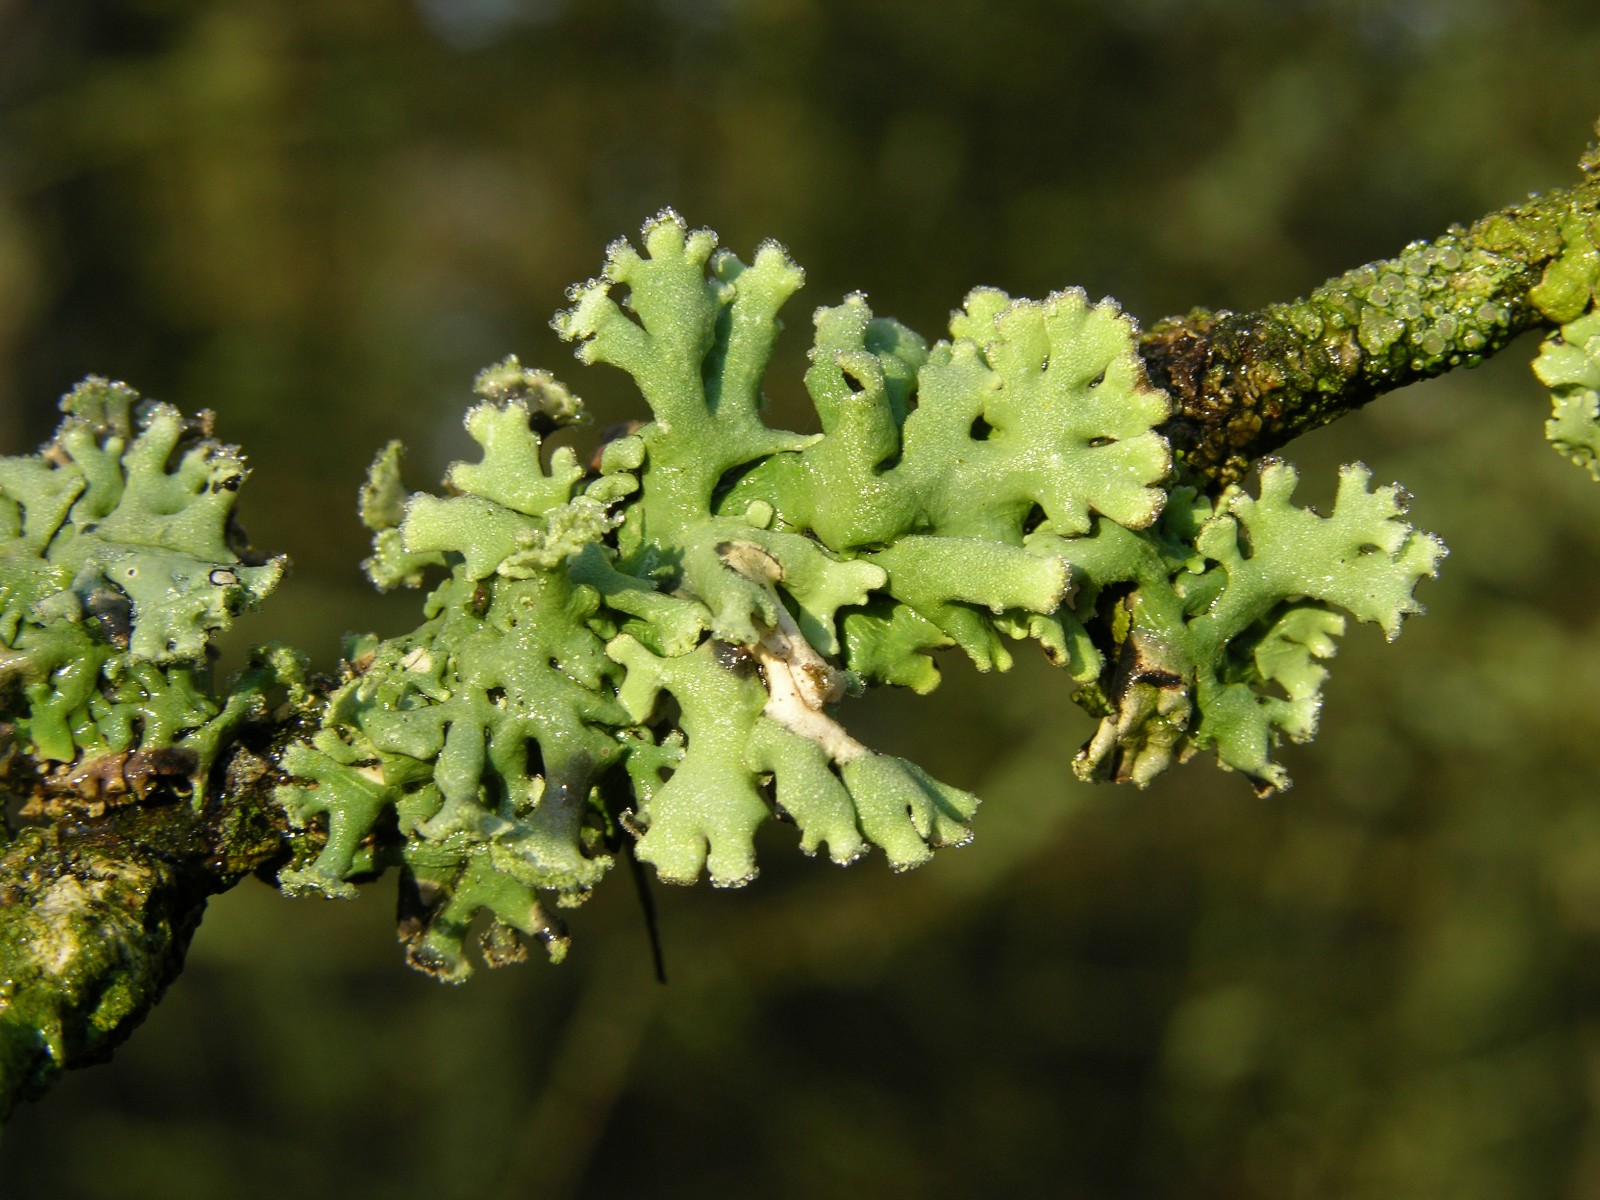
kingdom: Fungi
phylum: Ascomycota
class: Lecanoromycetes
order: Lecanorales
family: Parmeliaceae
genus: Hypogymnia
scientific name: Hypogymnia physodes
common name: almindelig kvistlav
